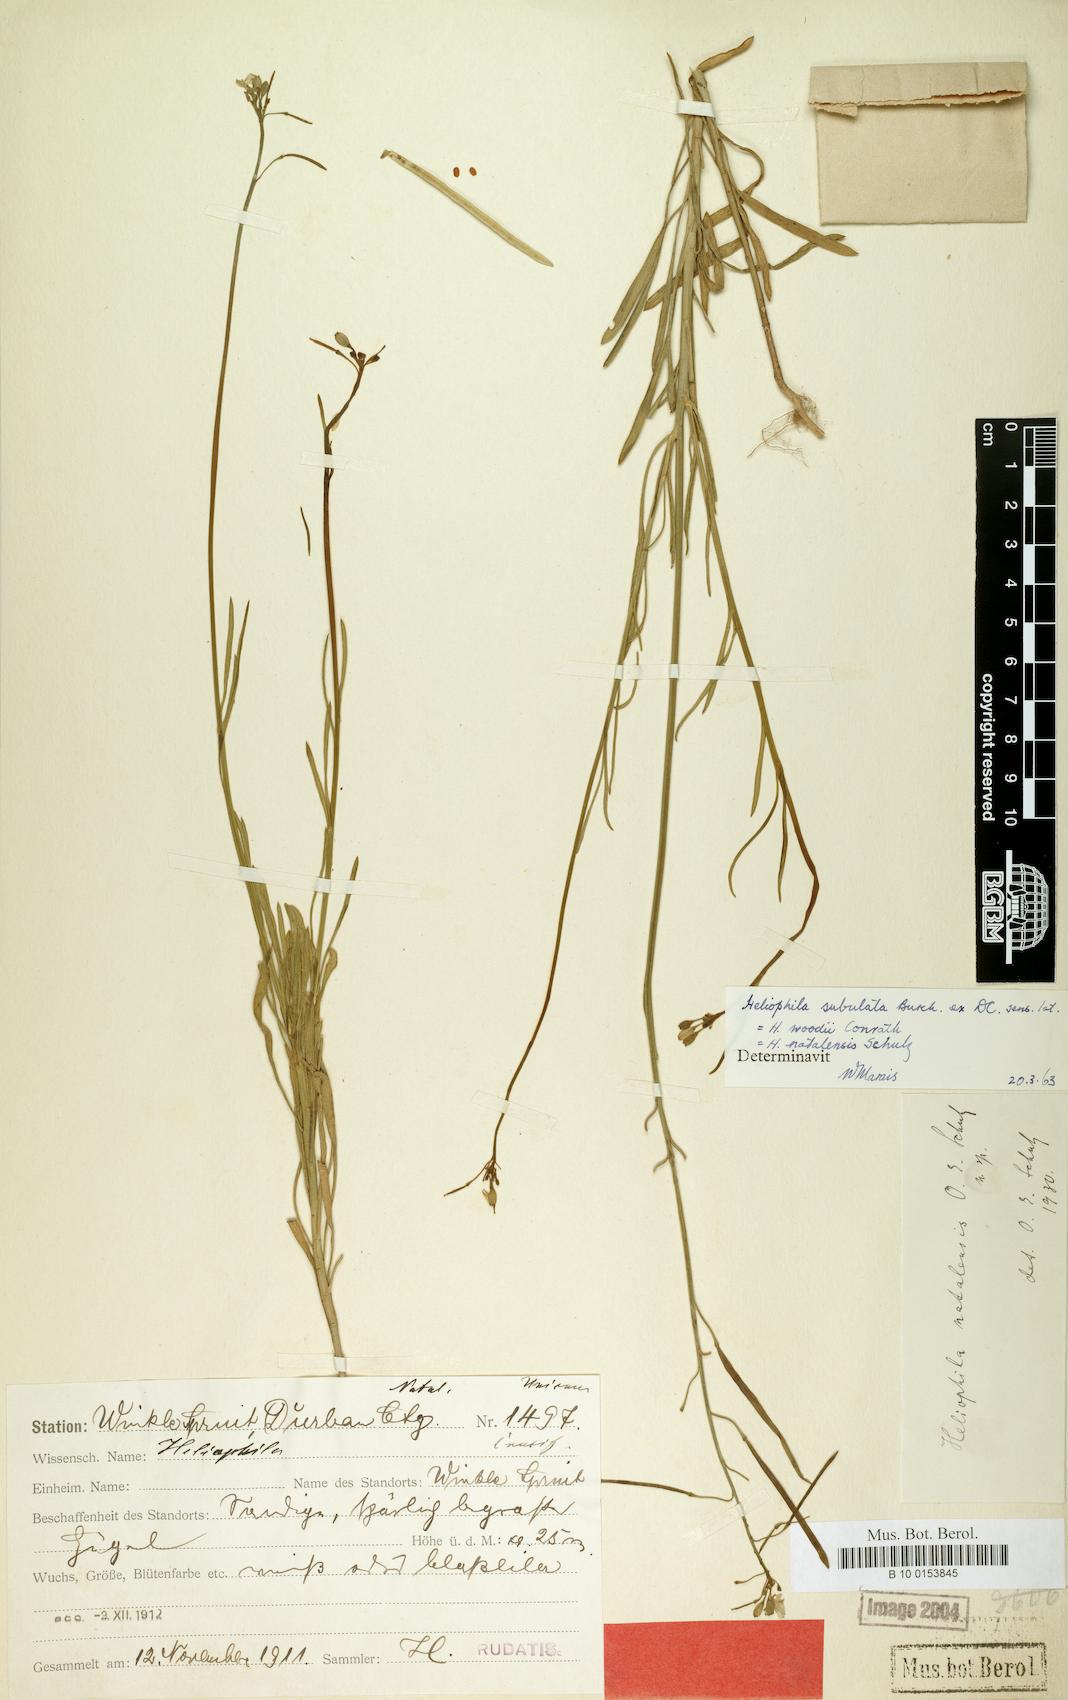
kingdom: Plantae
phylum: Tracheophyta
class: Magnoliopsida
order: Brassicales
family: Brassicaceae
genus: Heliophila
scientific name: Heliophila subulata
